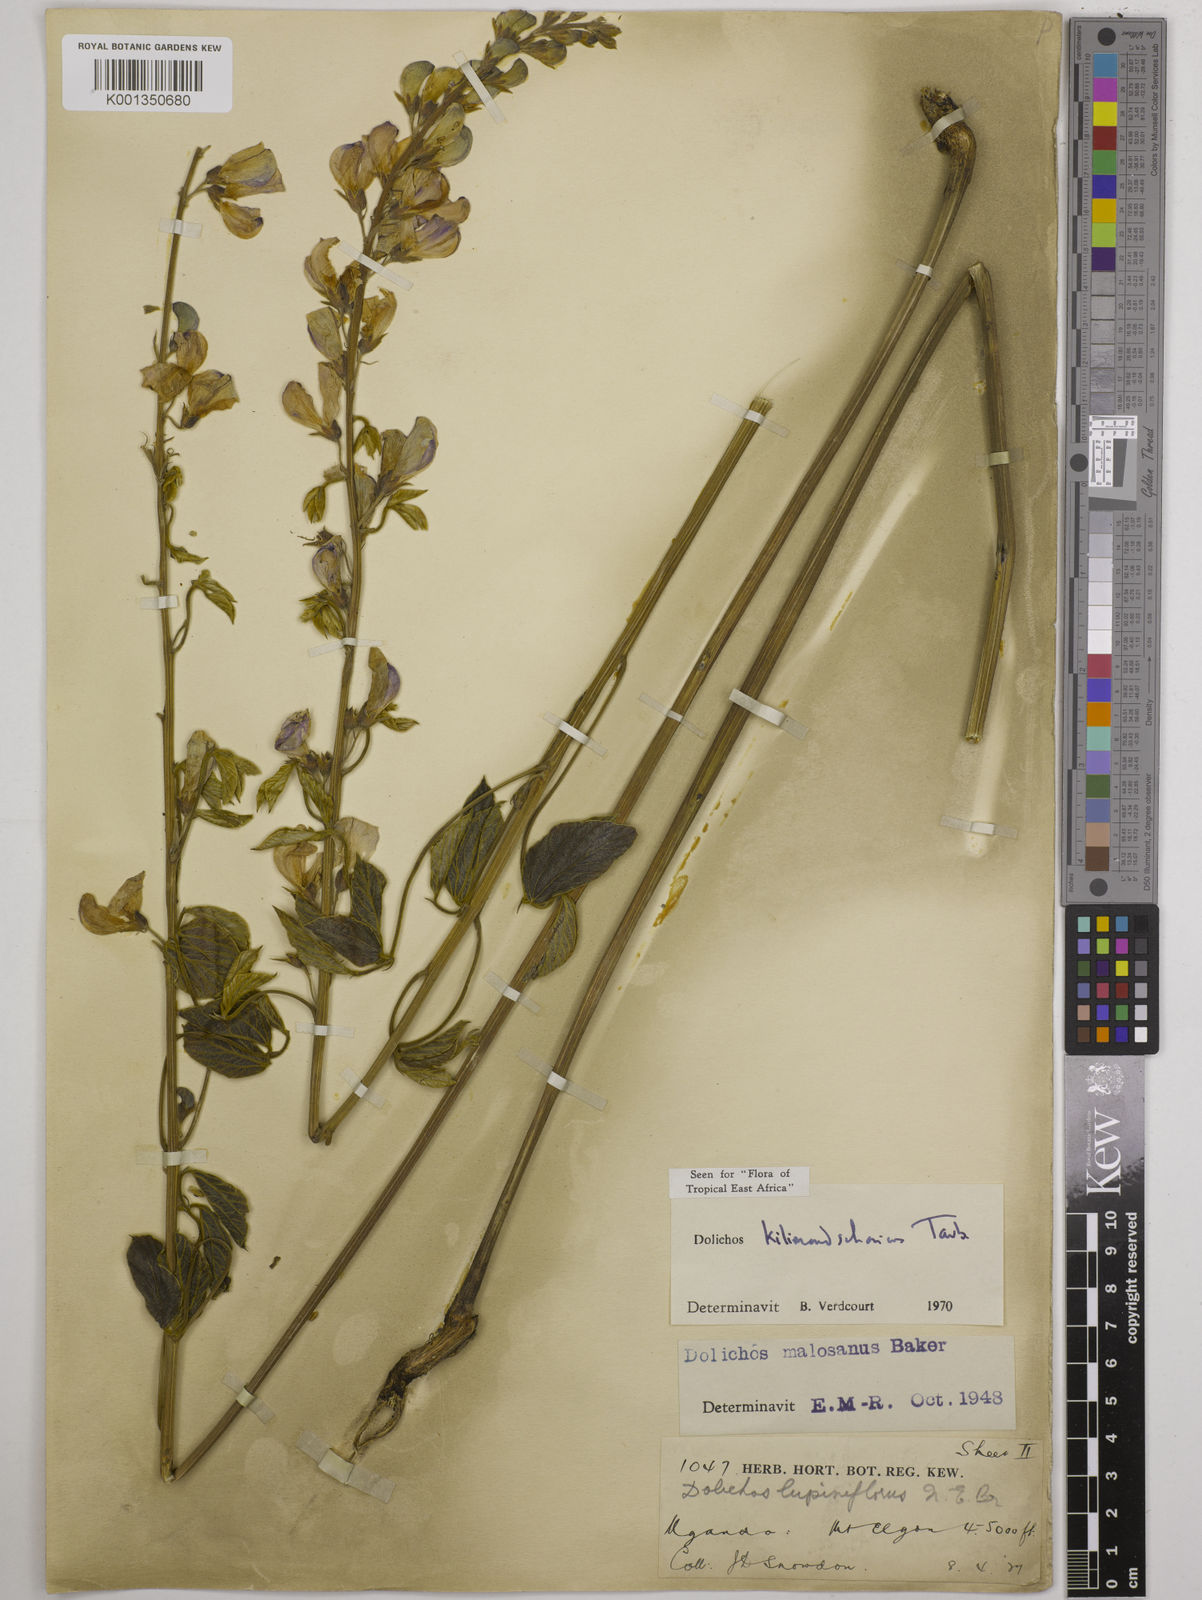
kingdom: Plantae
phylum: Tracheophyta
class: Magnoliopsida
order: Fabales
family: Fabaceae
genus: Dolichos
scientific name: Dolichos kilimandscharicus
